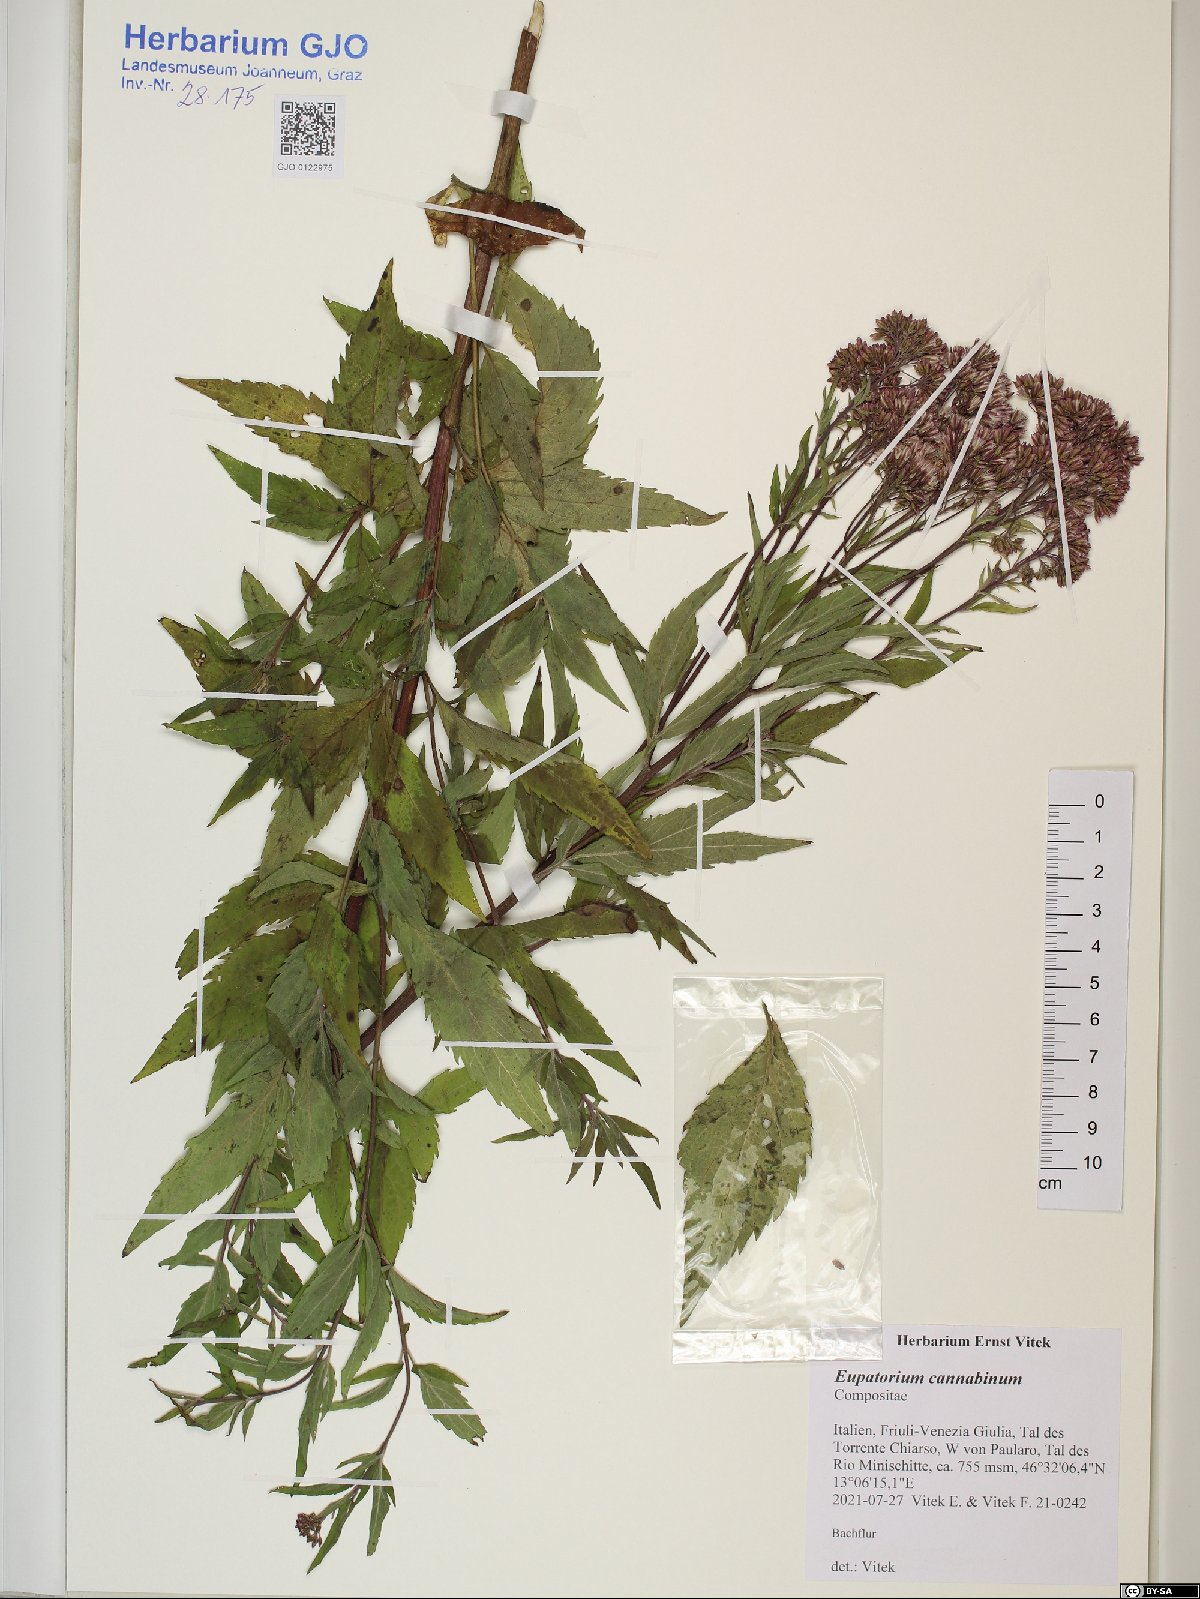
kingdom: Plantae
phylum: Tracheophyta
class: Magnoliopsida
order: Asterales
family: Asteraceae
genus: Eupatorium
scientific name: Eupatorium cannabinum
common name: Hemp-agrimony
